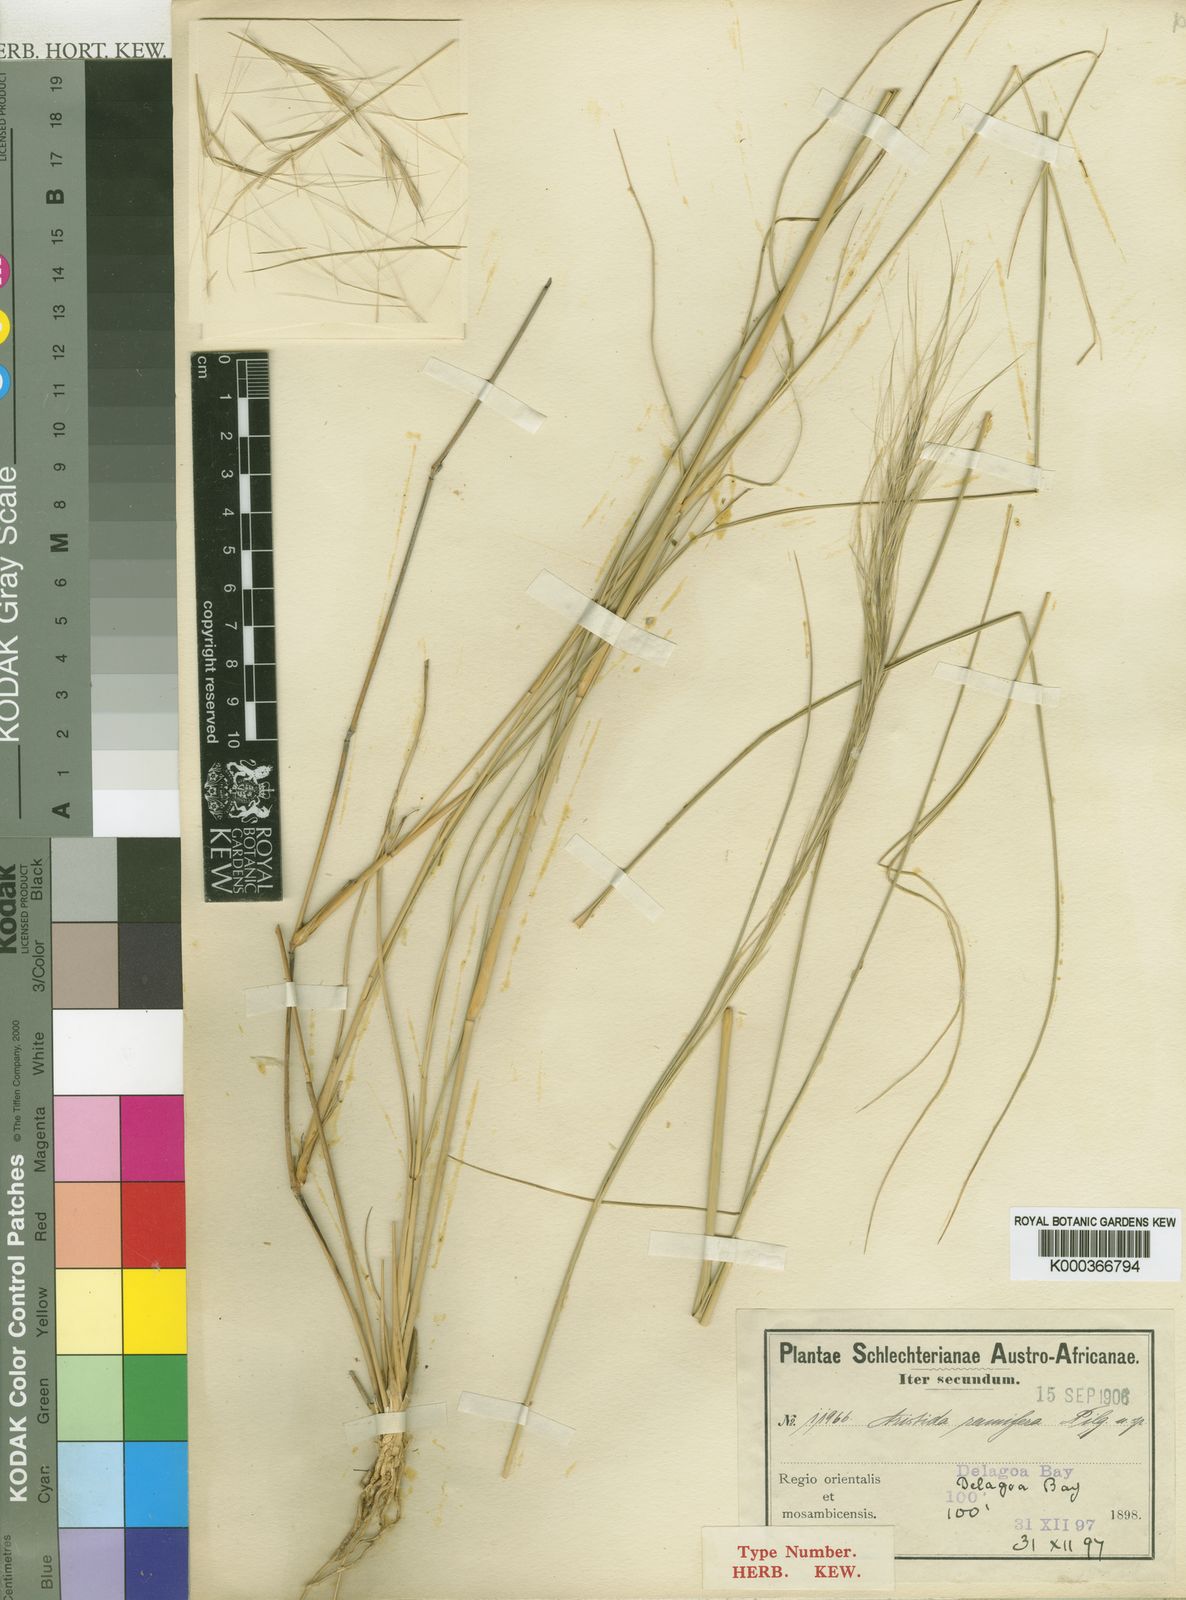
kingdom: Plantae
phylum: Tracheophyta
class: Liliopsida
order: Poales
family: Poaceae
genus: Aristida
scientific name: Aristida
